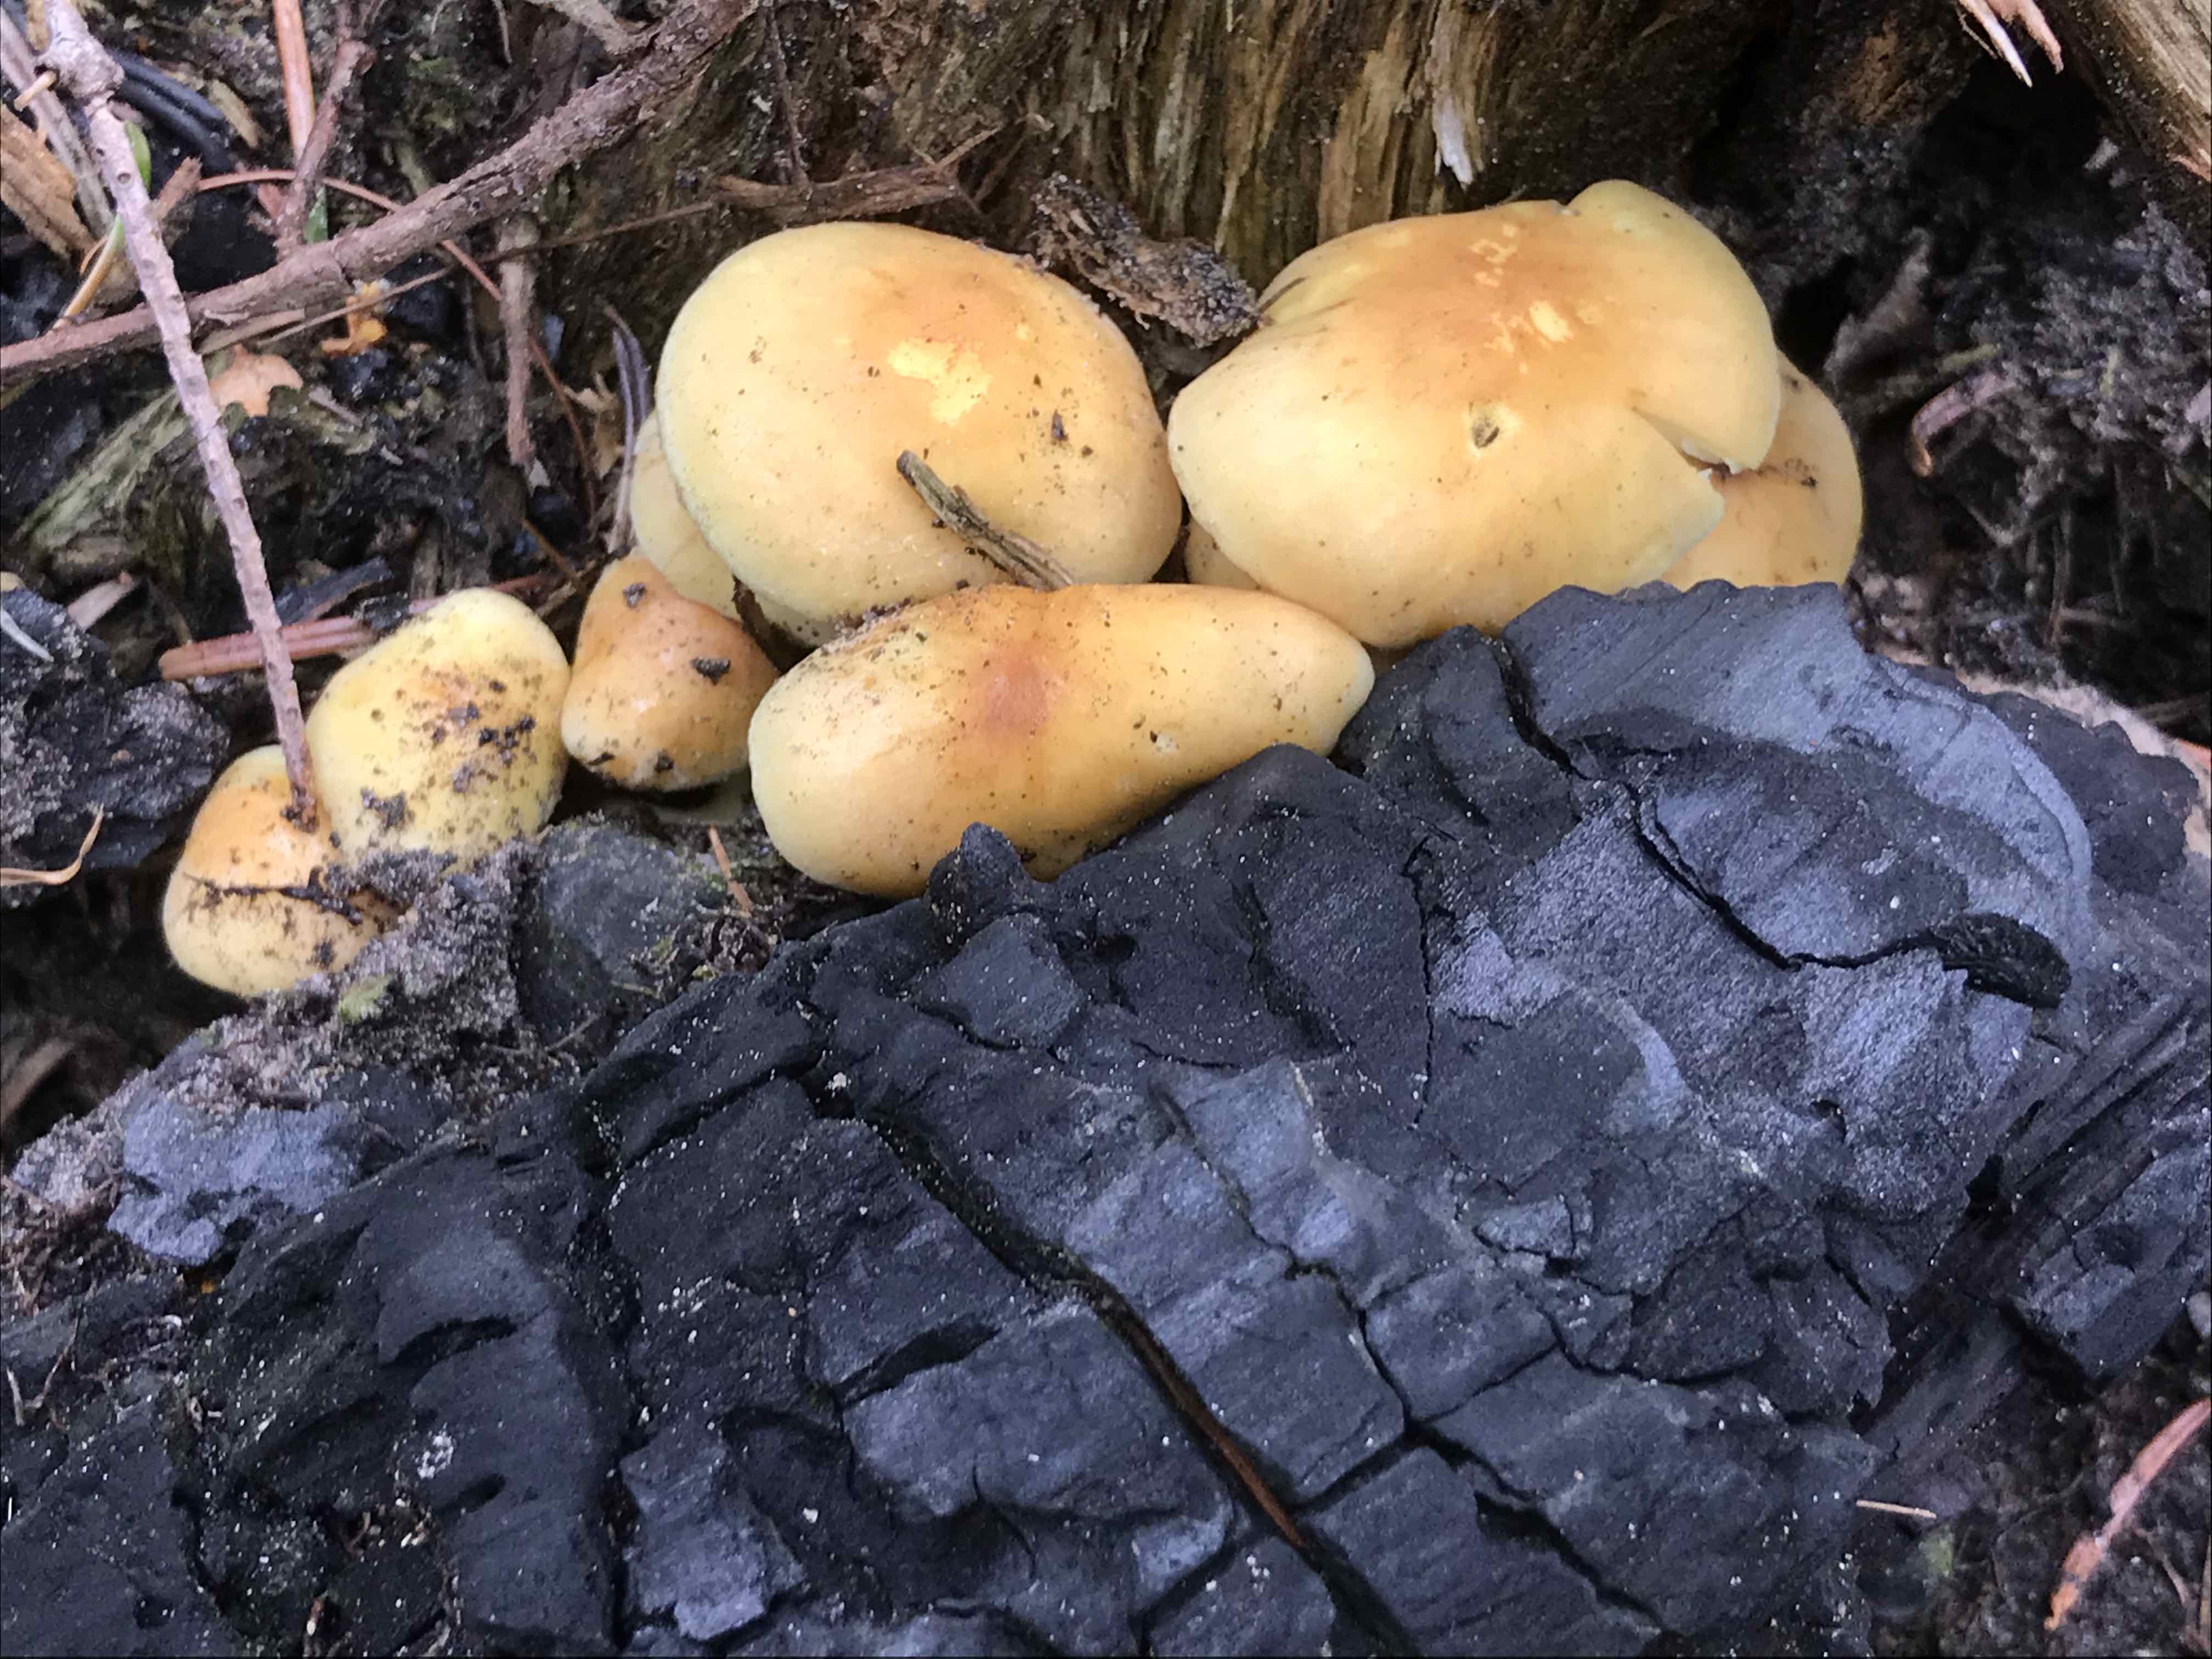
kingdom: Fungi
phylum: Basidiomycota
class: Agaricomycetes
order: Agaricales
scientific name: Agaricales
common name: champignonordenen
